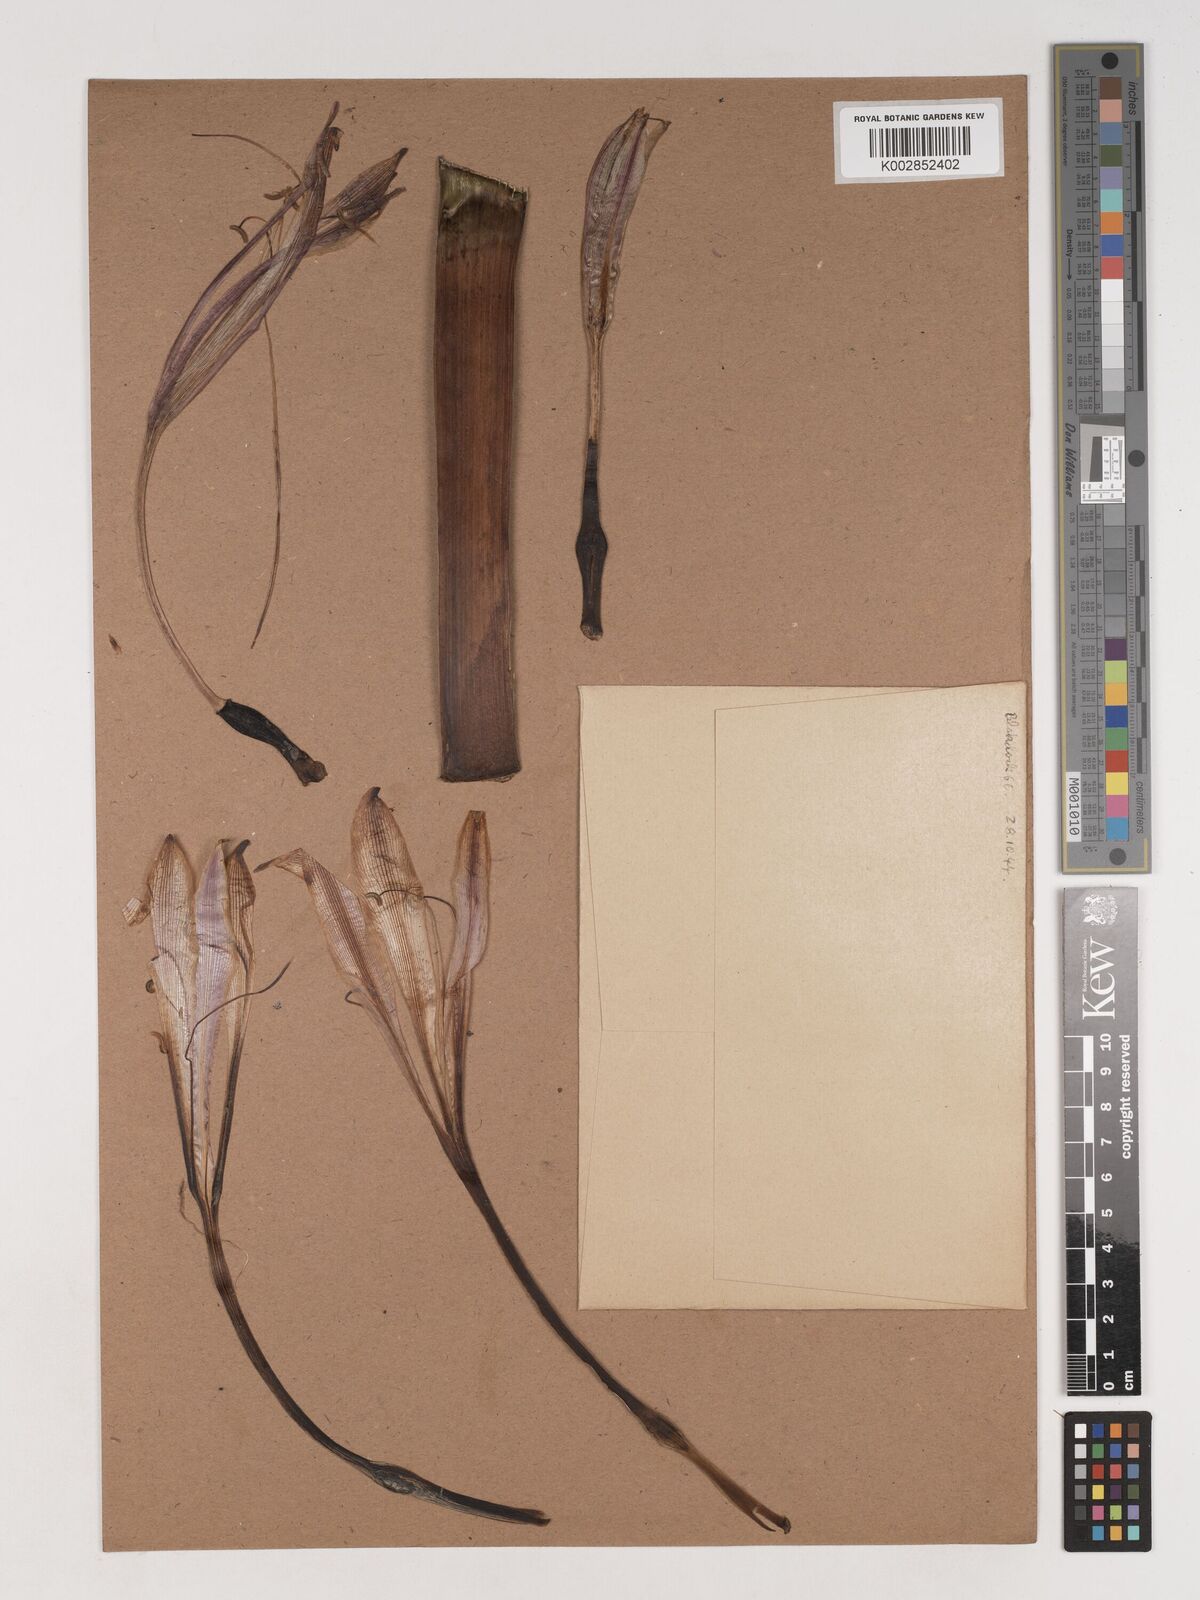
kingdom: Plantae
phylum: Tracheophyta
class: Liliopsida
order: Asparagales
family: Amaryllidaceae
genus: Crinum
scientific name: Crinum stuhlmannii
